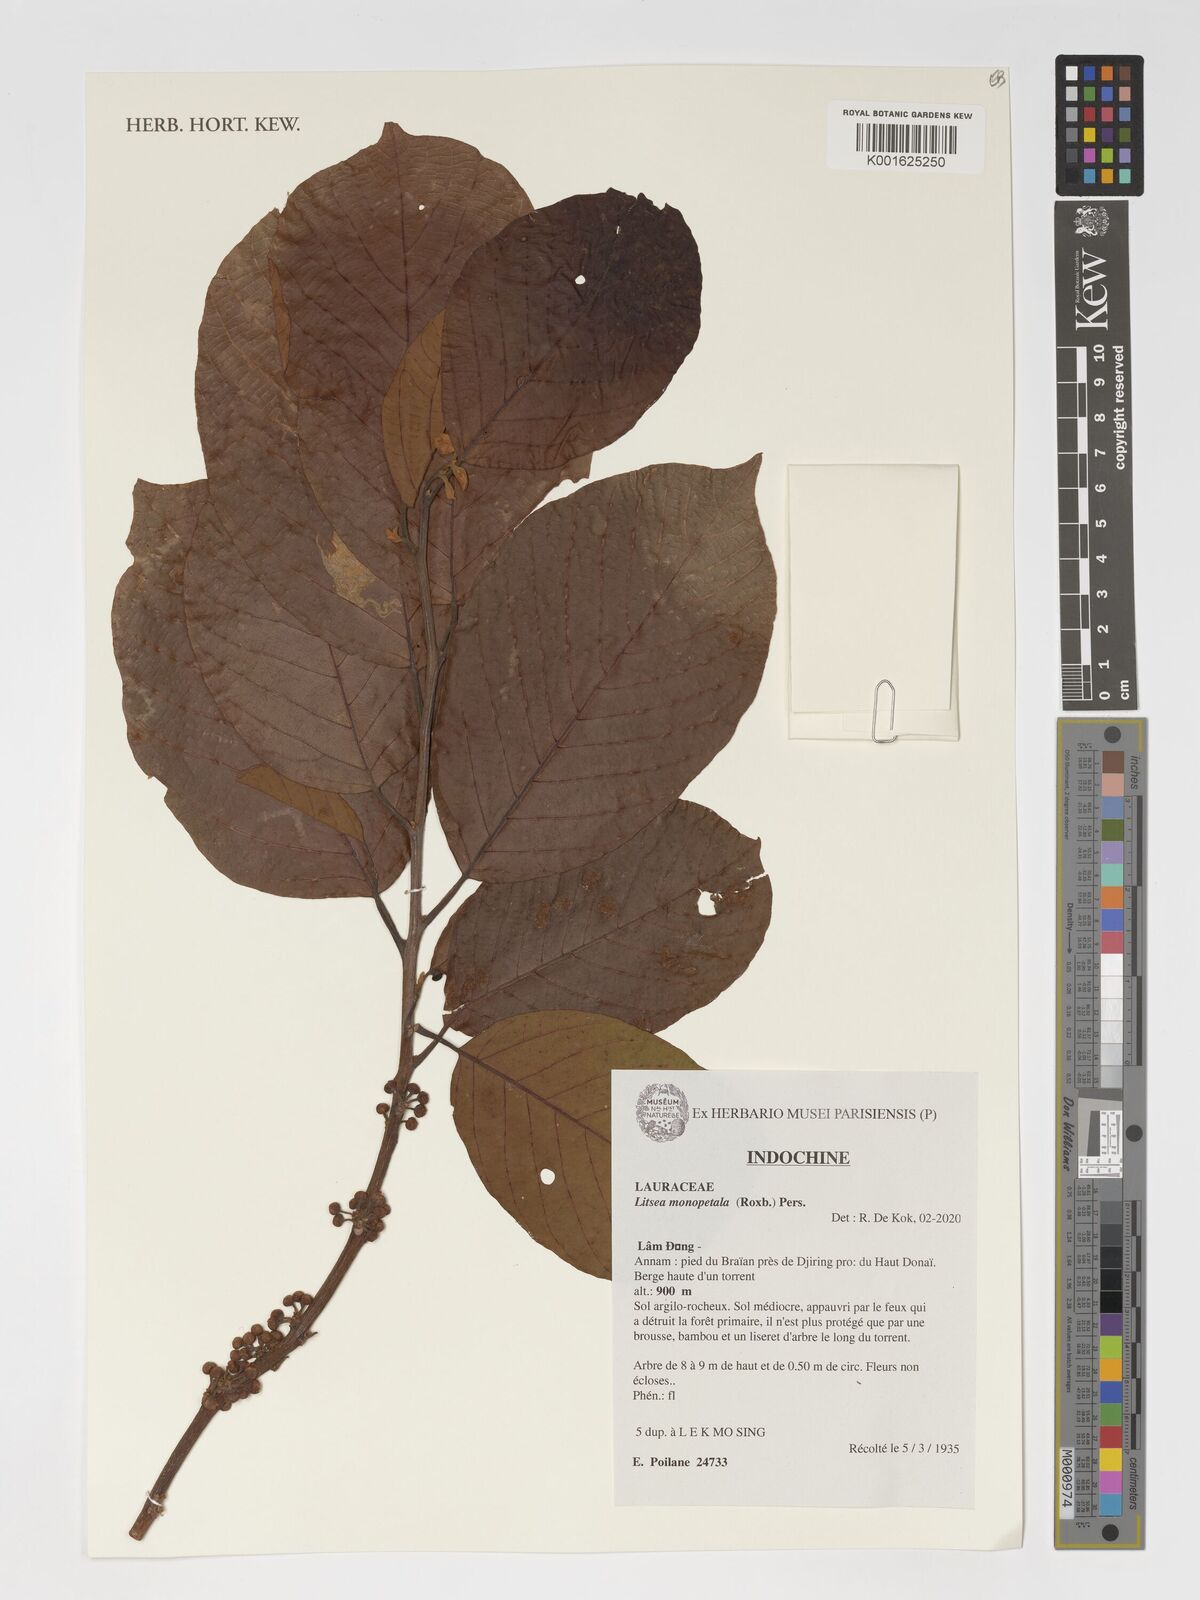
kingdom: Plantae
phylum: Tracheophyta
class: Magnoliopsida
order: Laurales
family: Lauraceae
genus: Litsea
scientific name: Litsea monopetala
